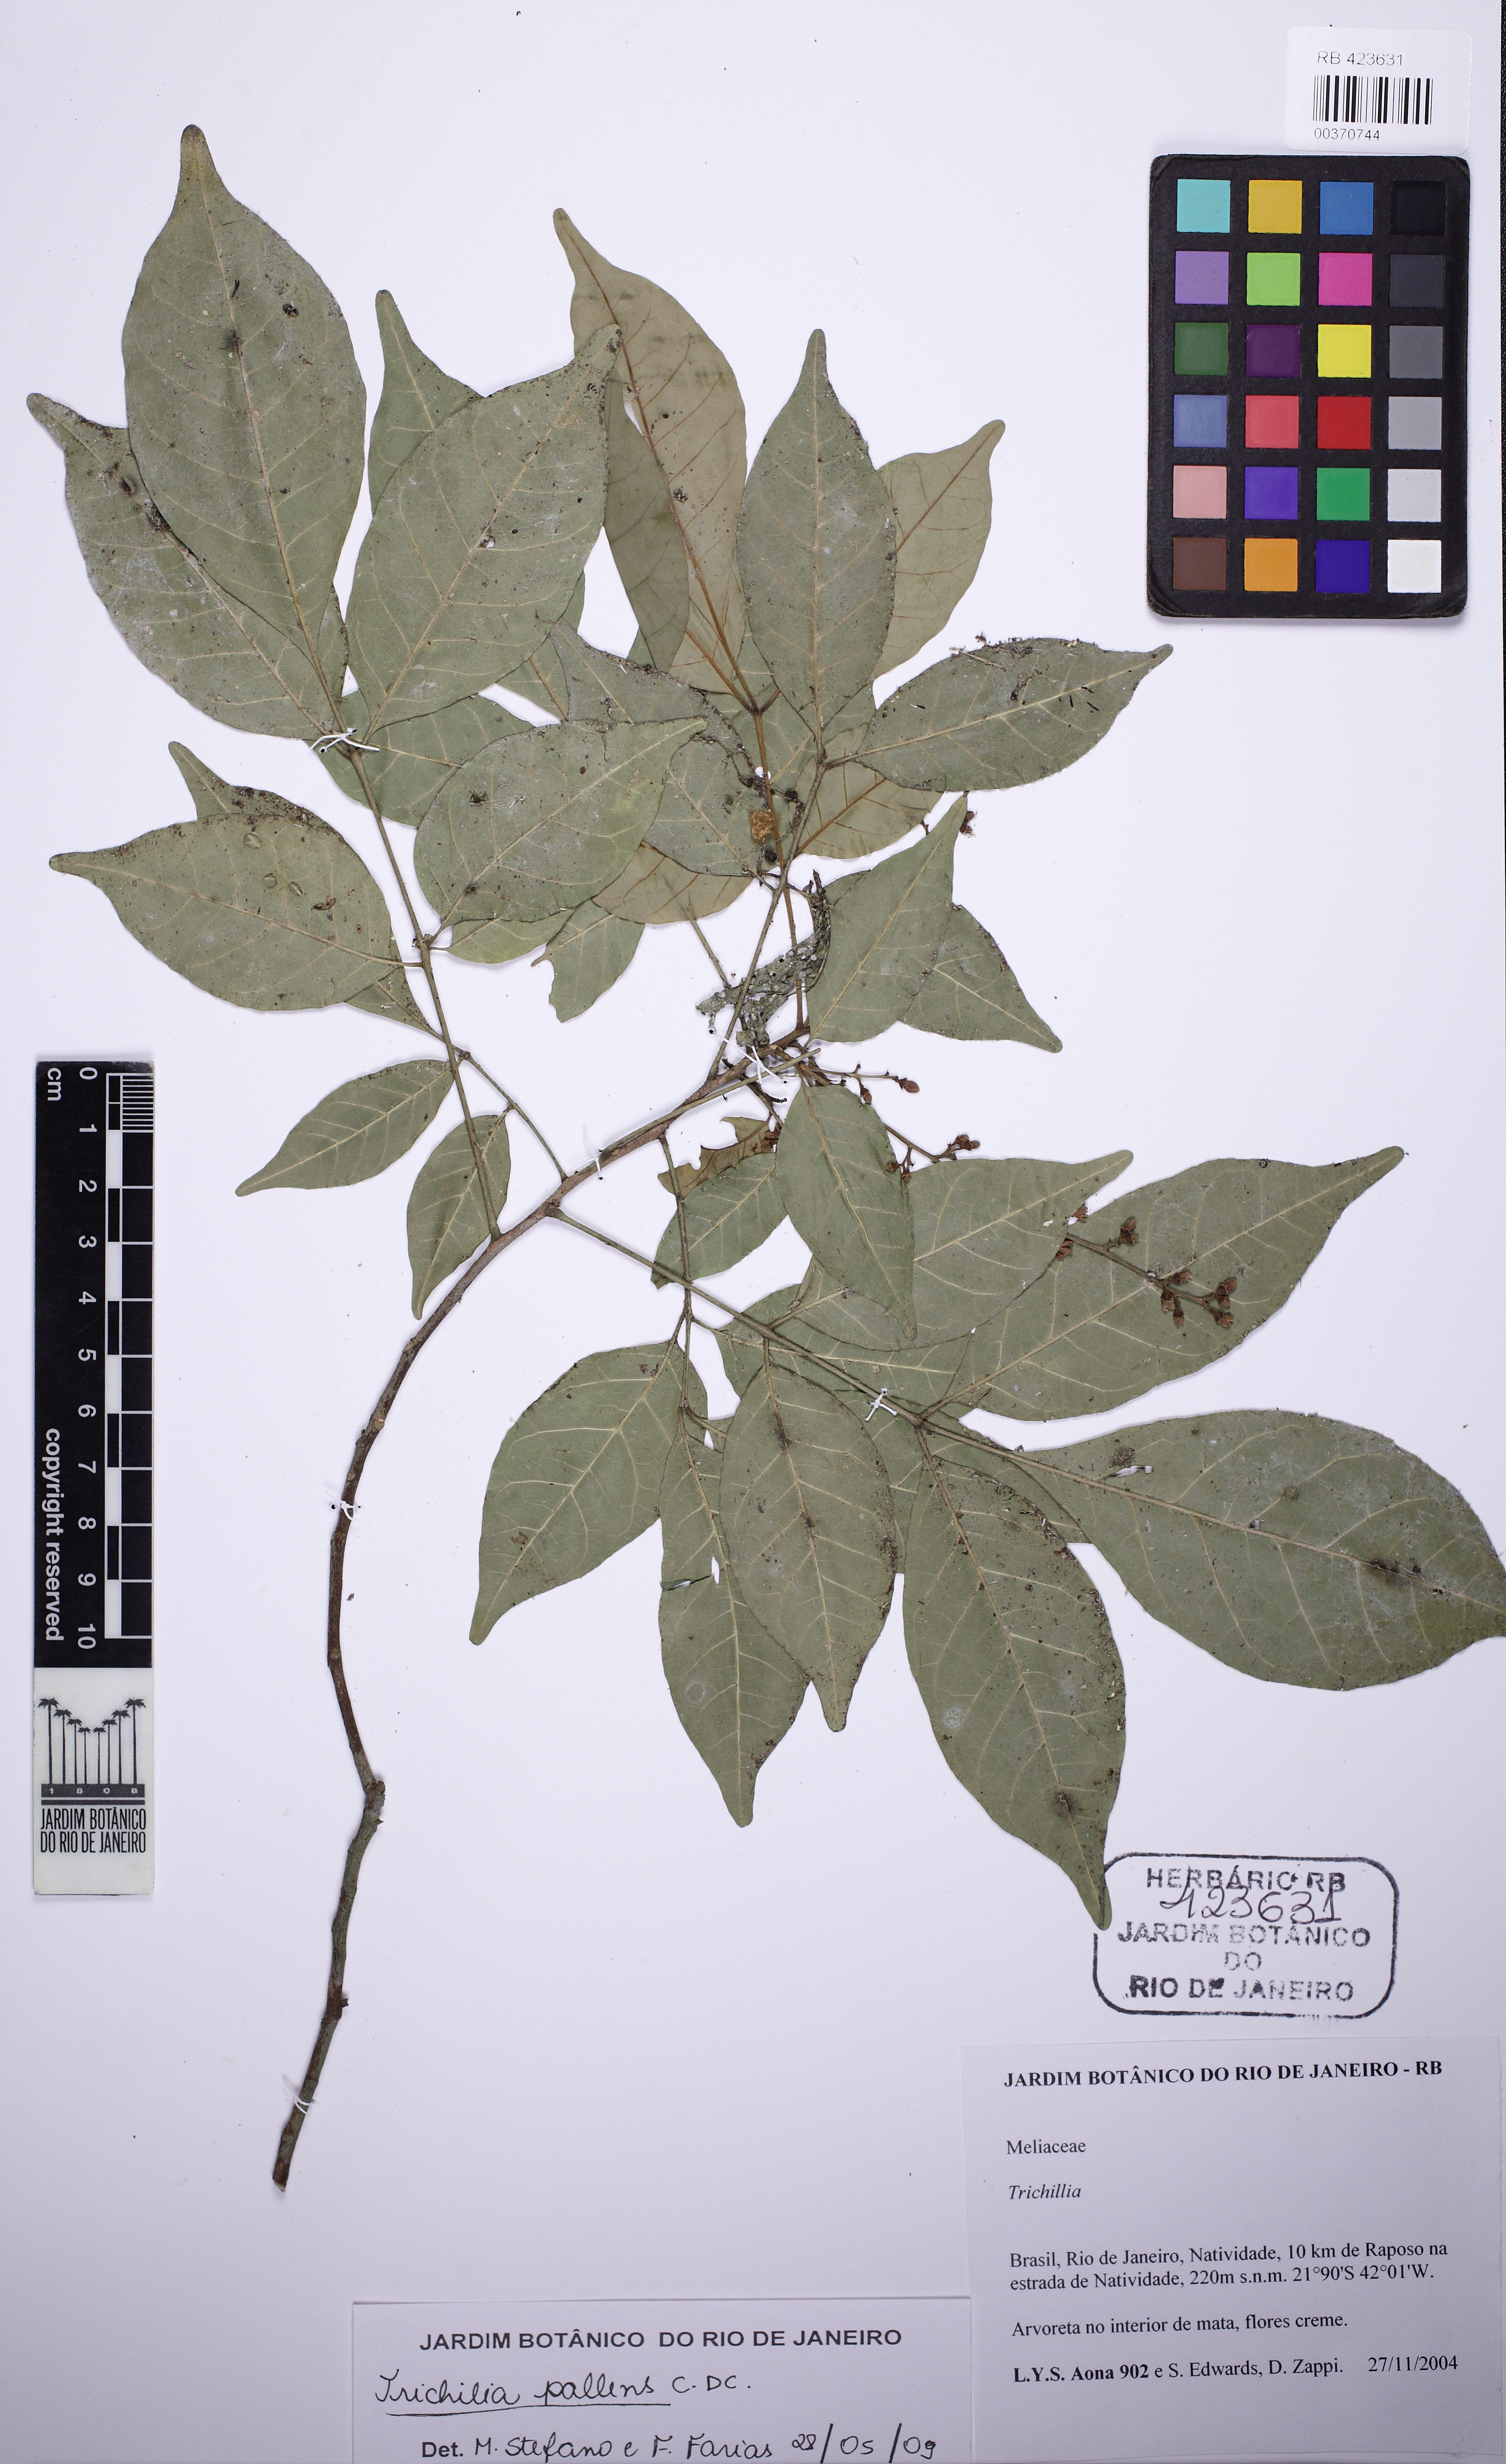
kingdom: Plantae
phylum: Tracheophyta
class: Magnoliopsida
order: Sapindales
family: Meliaceae
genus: Trichilia
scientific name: Trichilia pallens
